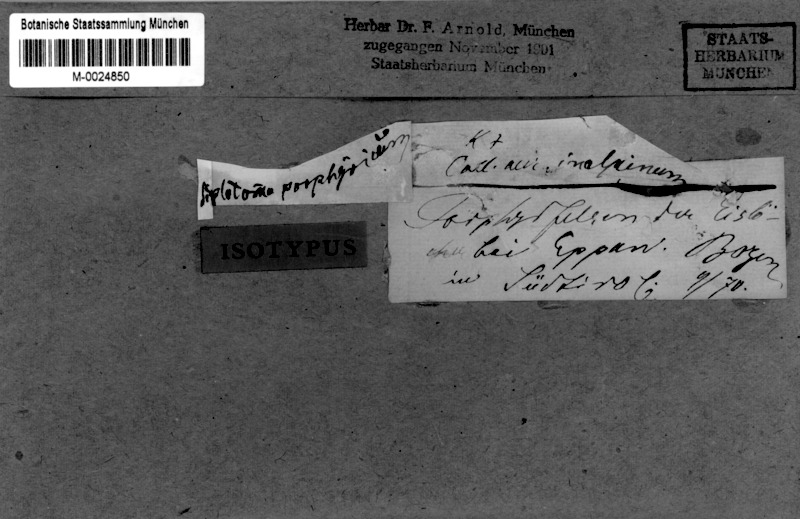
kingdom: Fungi
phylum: Ascomycota
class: Lecanoromycetes
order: Caliciales
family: Caliciaceae
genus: Diplotomma
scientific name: Diplotomma chlorophaeum
